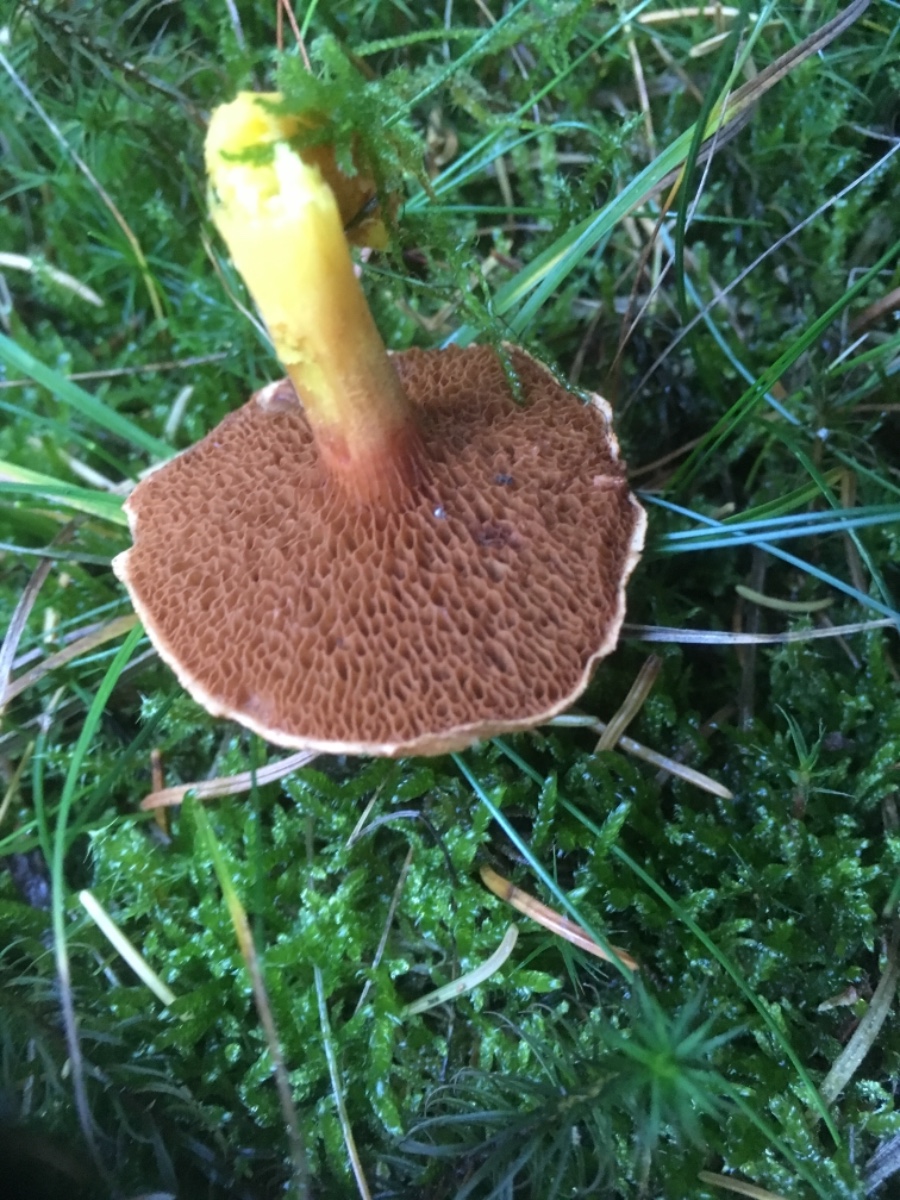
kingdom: Fungi
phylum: Basidiomycota
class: Agaricomycetes
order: Boletales
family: Boletaceae
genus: Chalciporus
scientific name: Chalciporus piperatus
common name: peberrørhat
